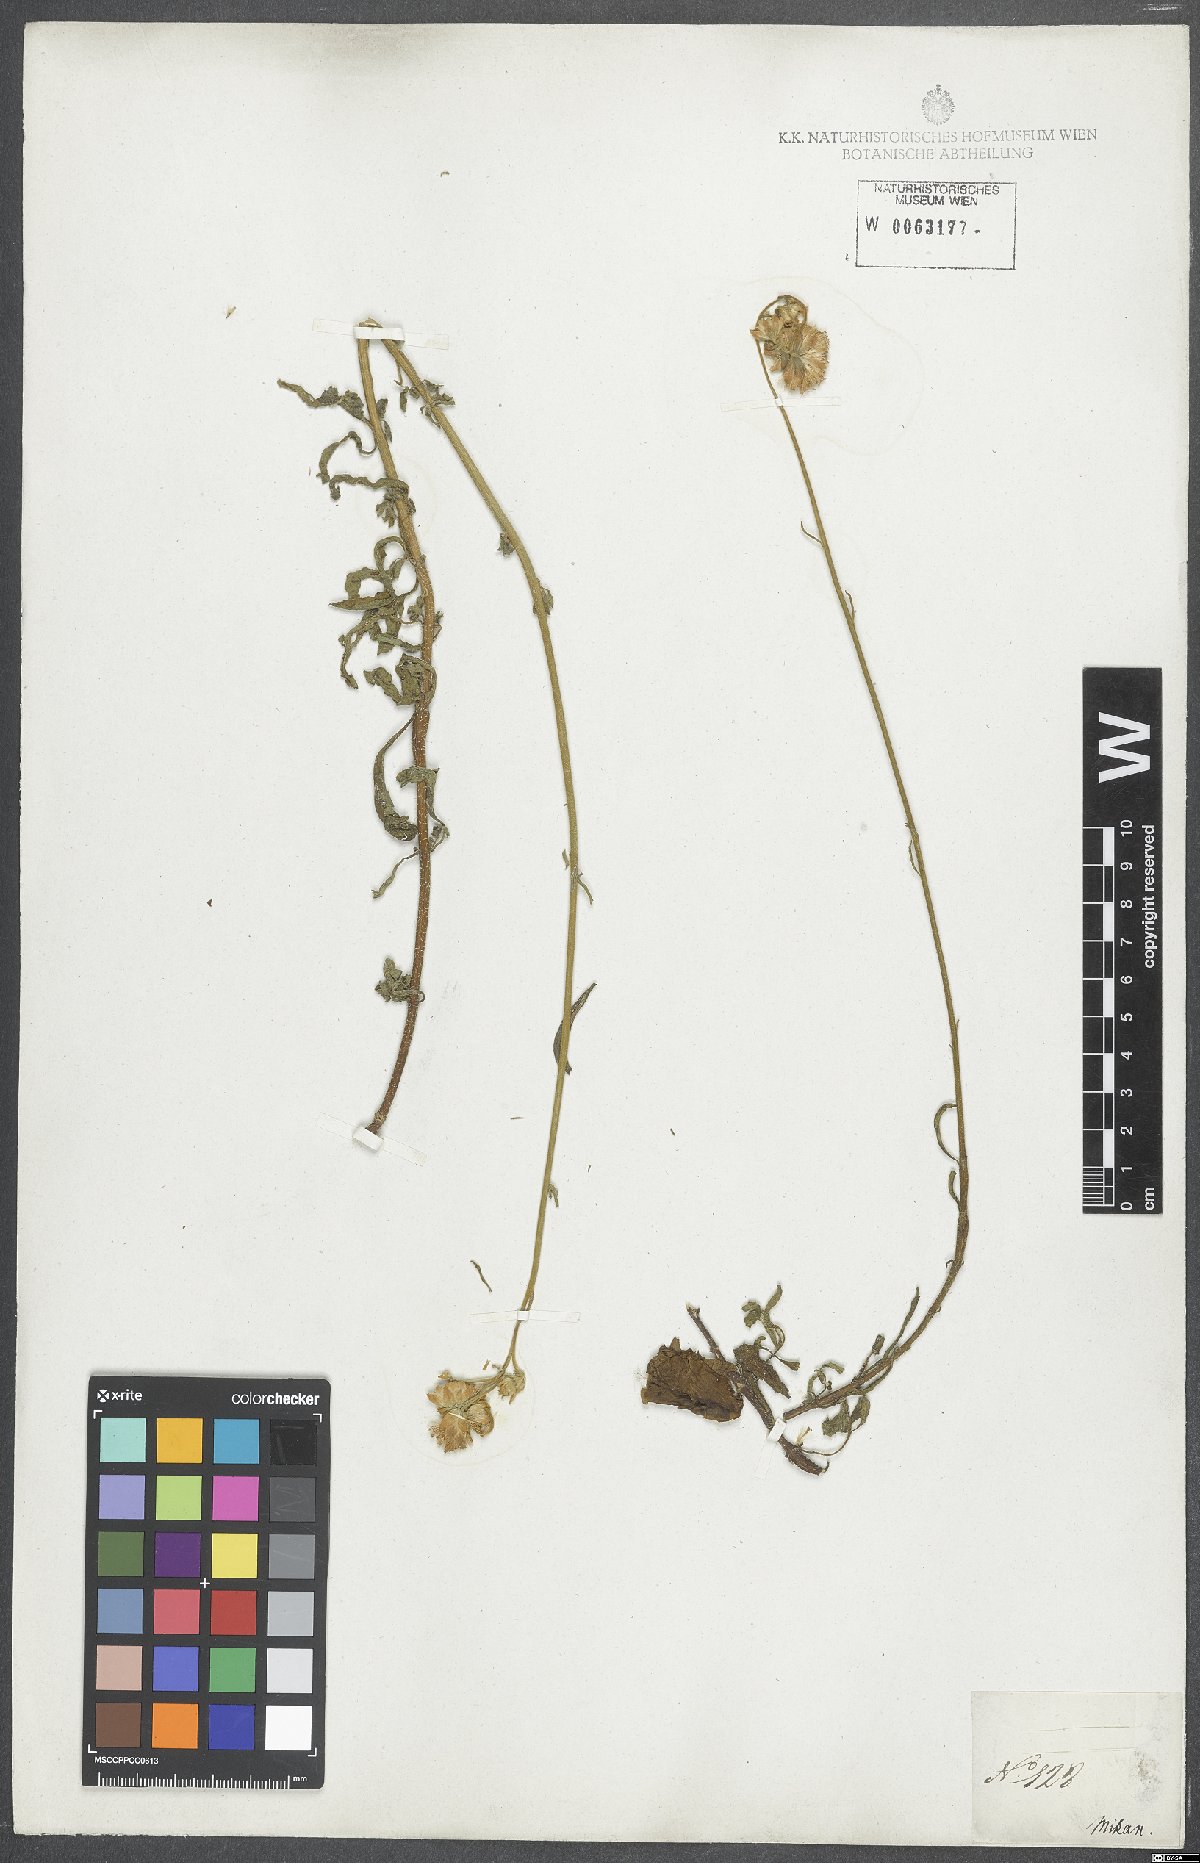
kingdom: Plantae
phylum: Tracheophyta
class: Magnoliopsida
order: Asterales
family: Asteraceae
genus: Eupatorium
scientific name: Eupatorium
